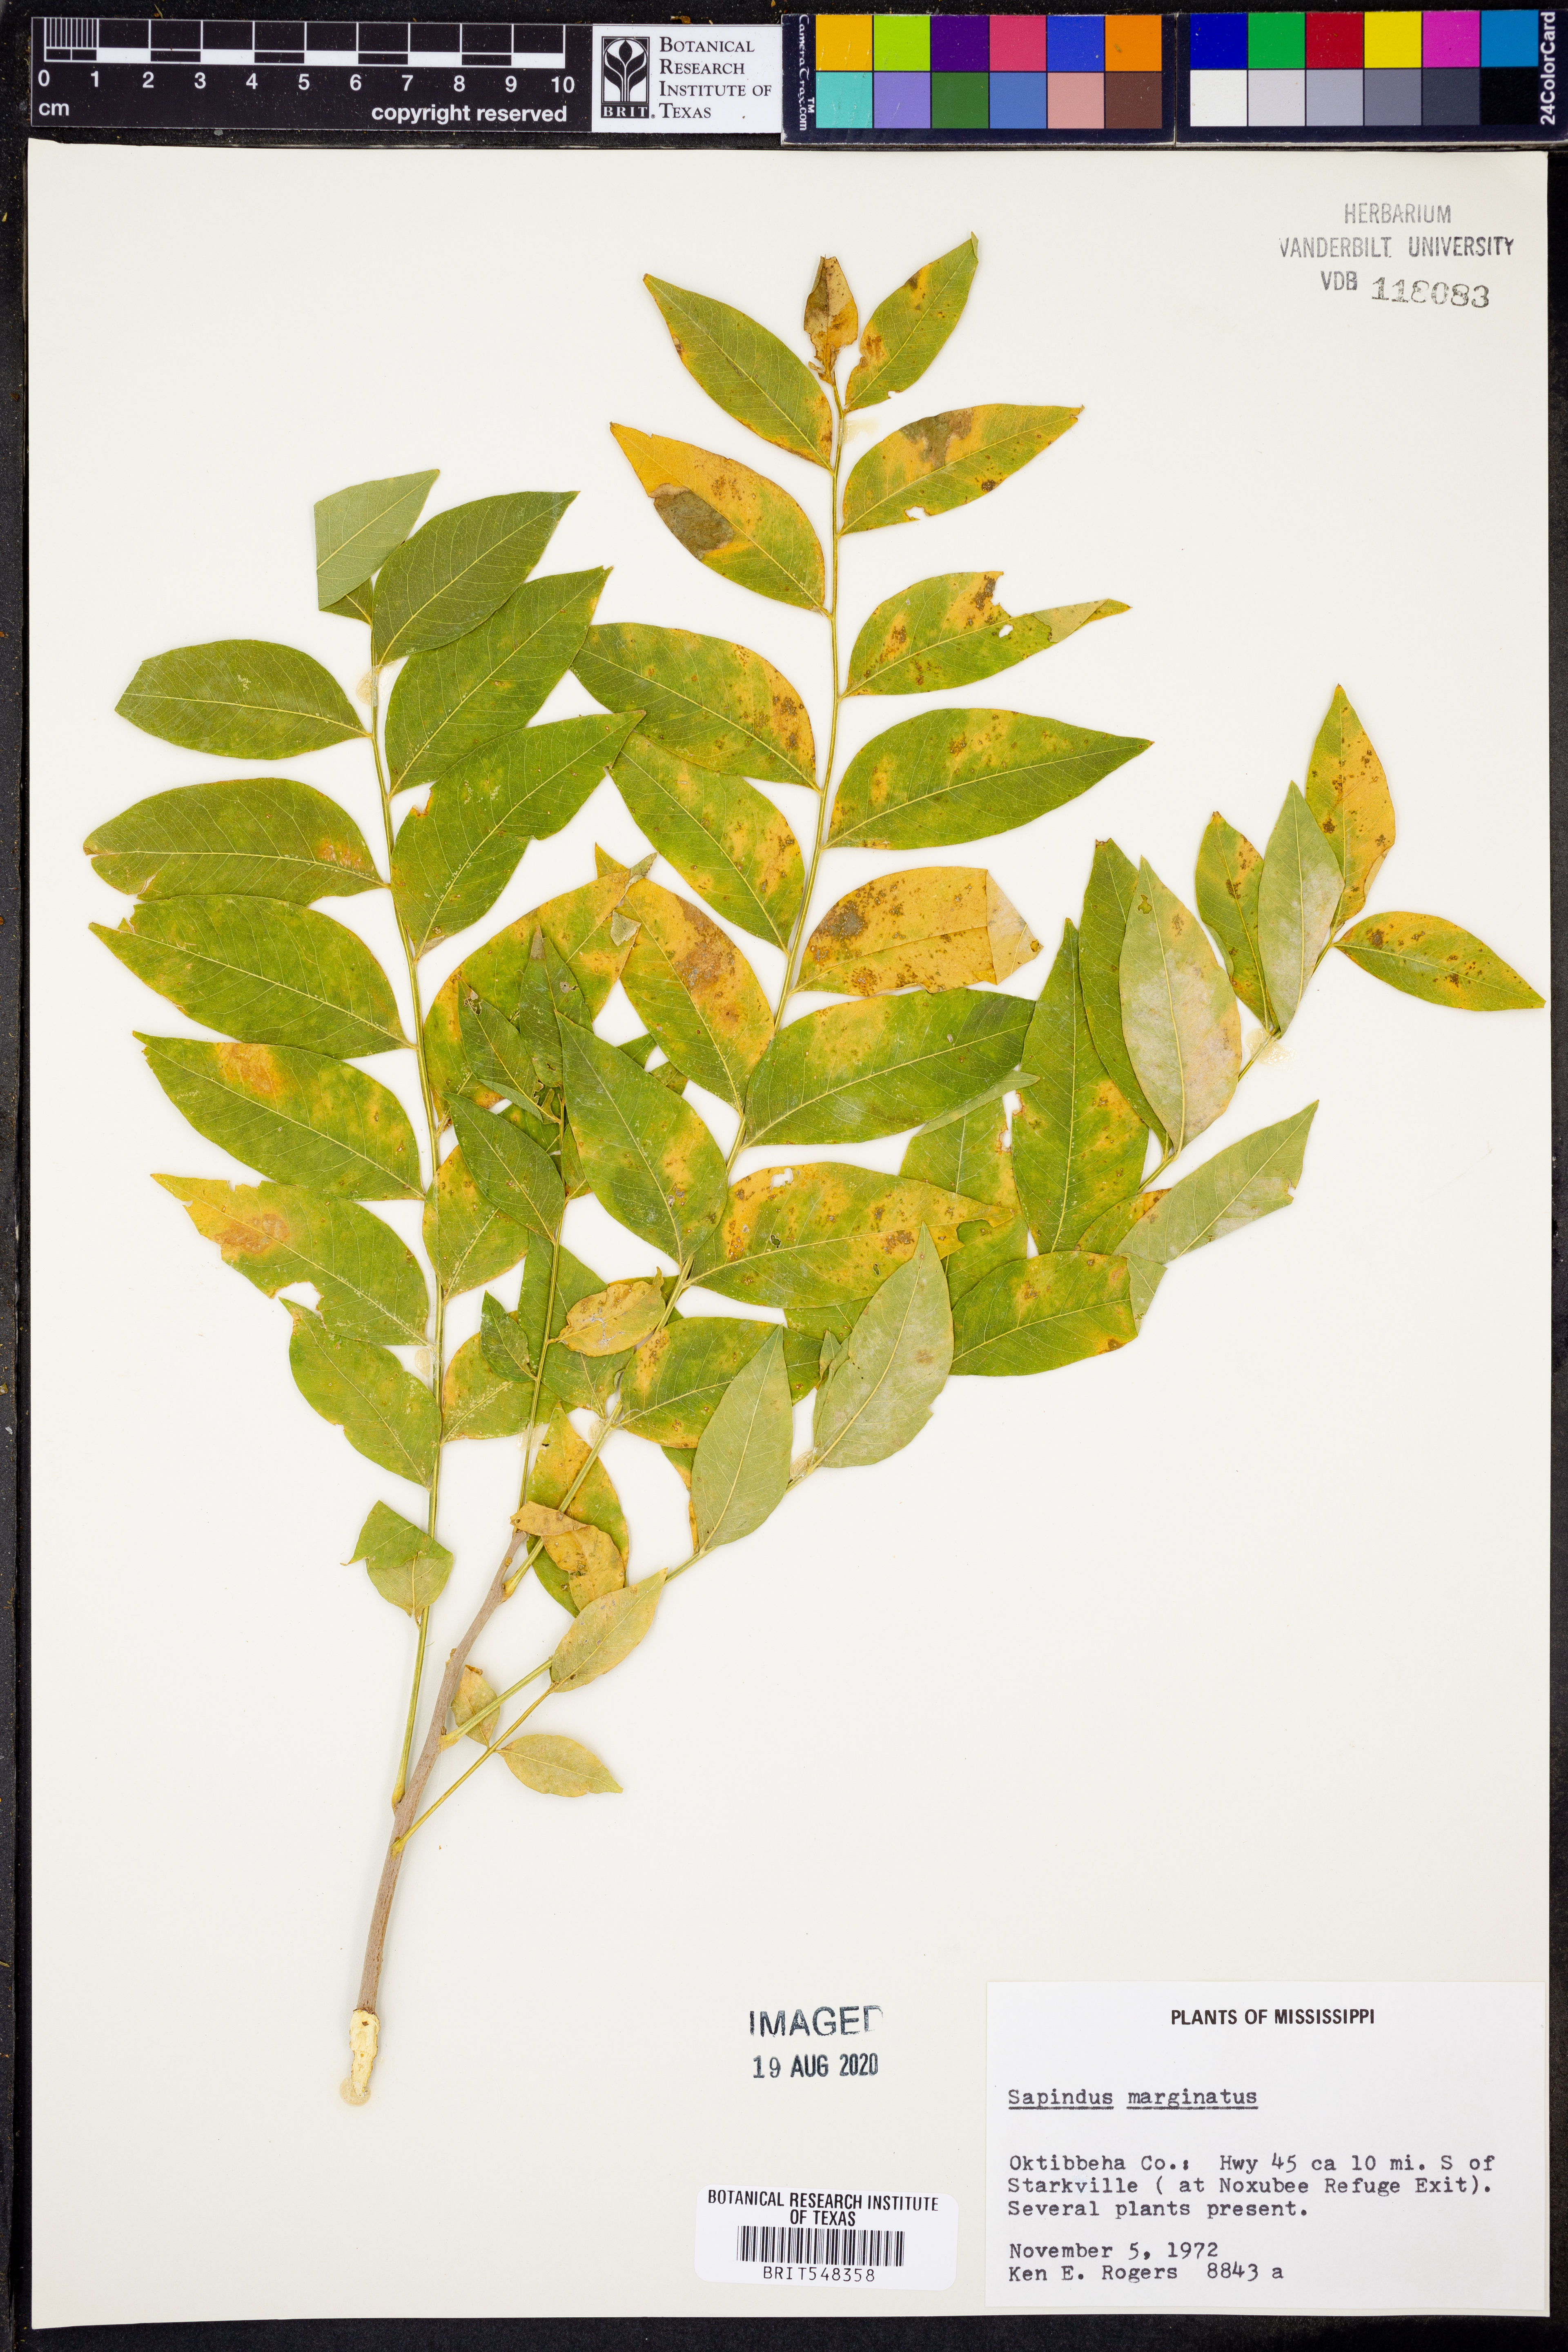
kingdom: Plantae
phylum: Tracheophyta
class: Magnoliopsida
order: Sapindales
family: Sapindaceae
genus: Sapindus
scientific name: Sapindus saponaria
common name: Wingleaf soapberry
